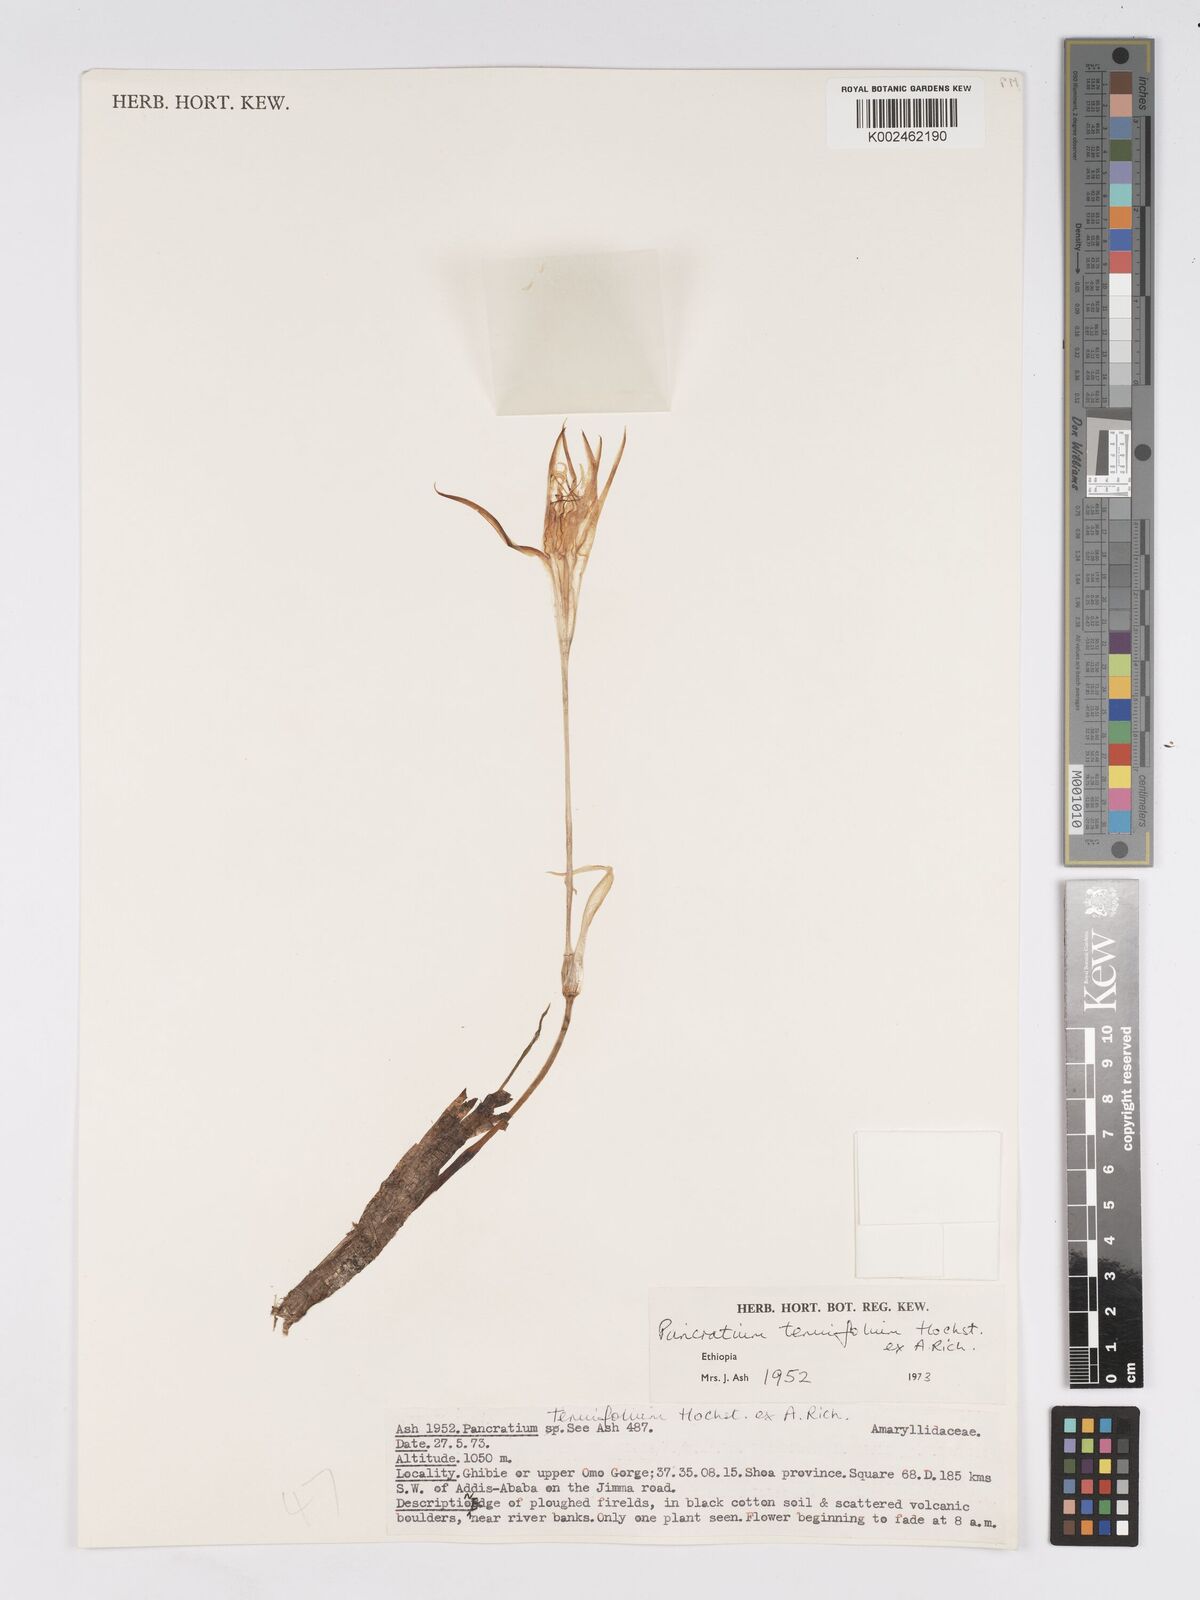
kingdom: Plantae
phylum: Tracheophyta
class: Liliopsida
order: Asparagales
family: Amaryllidaceae
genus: Pancratium
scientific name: Pancratium tenuifolium
